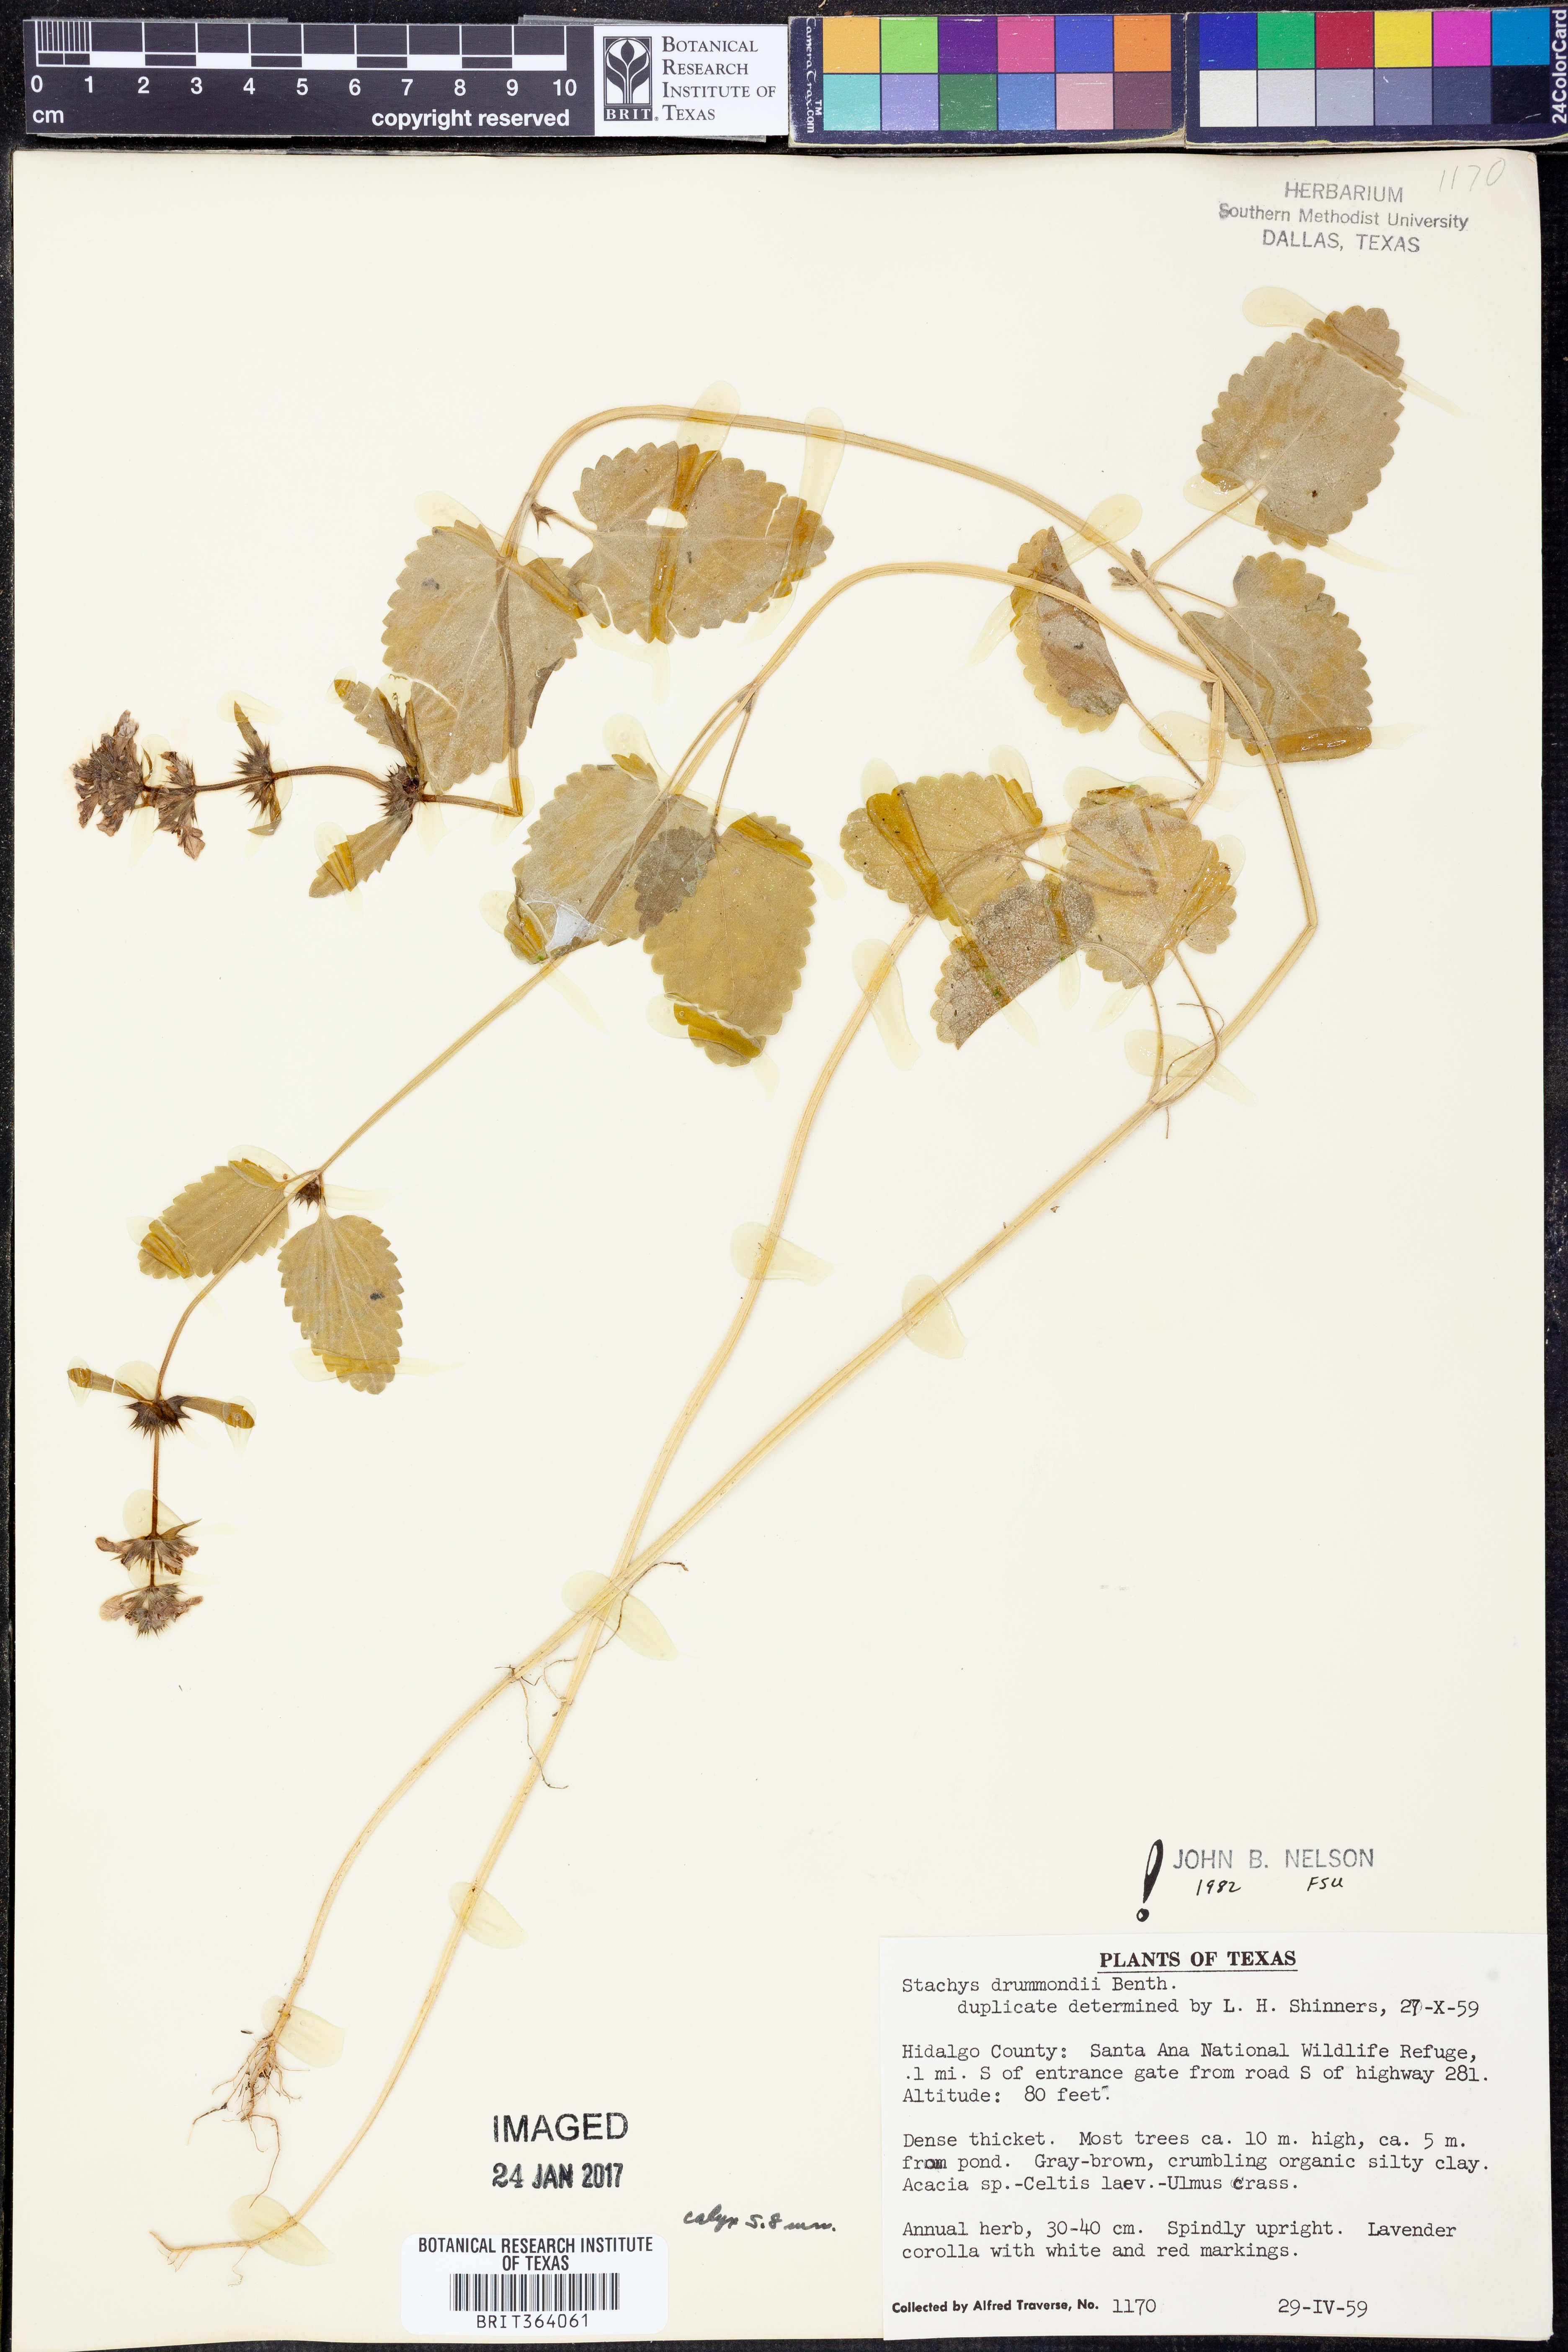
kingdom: Plantae
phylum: Tracheophyta
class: Magnoliopsida
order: Lamiales
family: Lamiaceae
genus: Stachys
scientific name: Stachys drummondii
